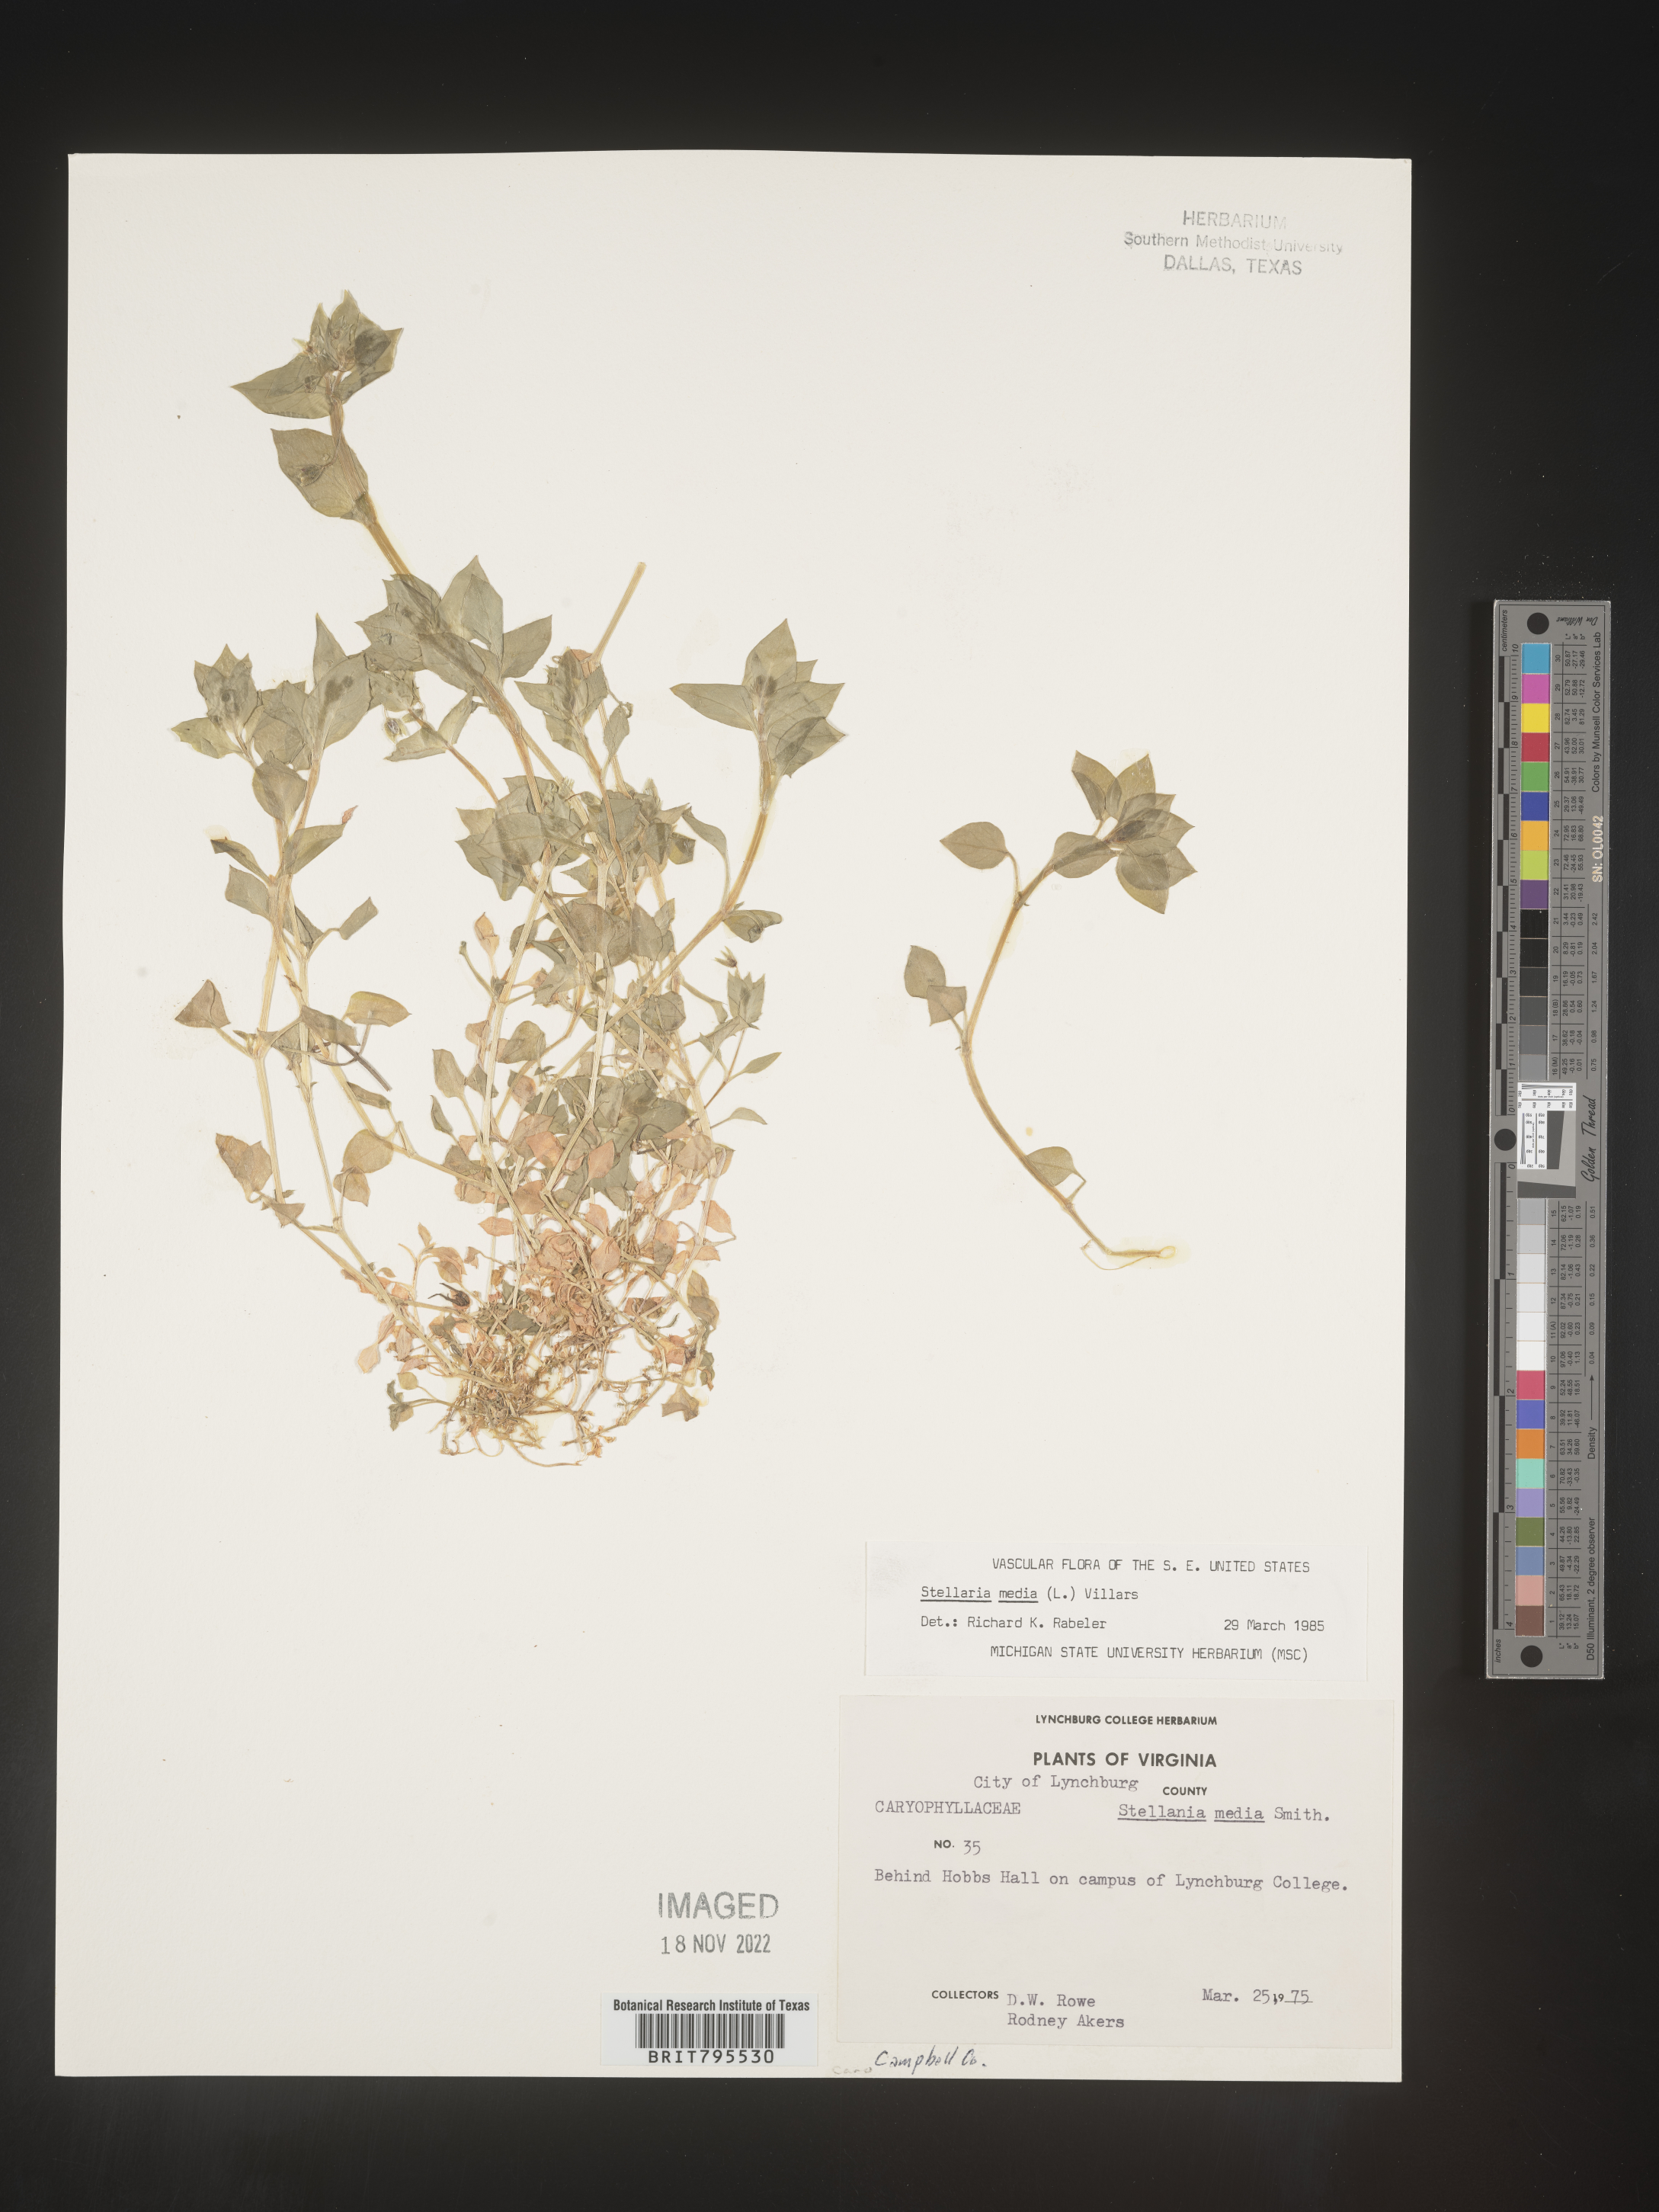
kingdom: Plantae
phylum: Tracheophyta
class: Magnoliopsida
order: Caryophyllales
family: Caryophyllaceae
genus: Stellaria
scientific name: Stellaria media
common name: Common chickweed
